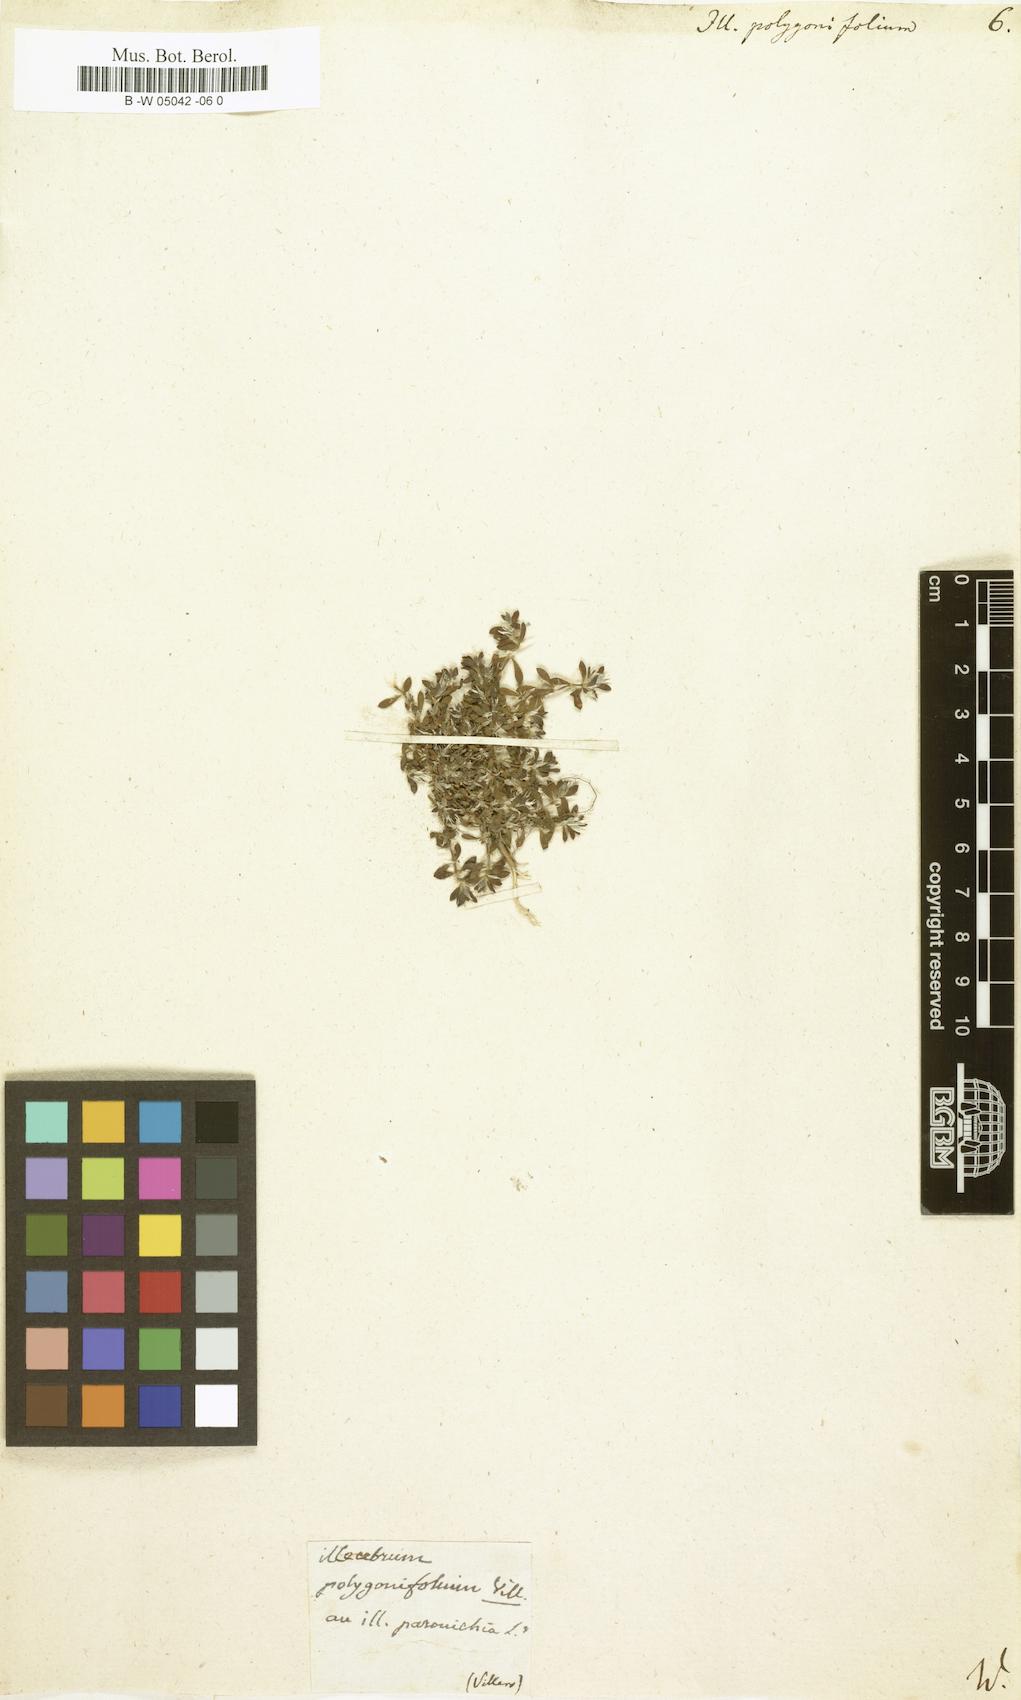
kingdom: Plantae
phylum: Tracheophyta
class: Magnoliopsida
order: Caryophyllales
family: Caryophyllaceae
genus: Paronychia
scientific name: Paronychia polygonifolia
